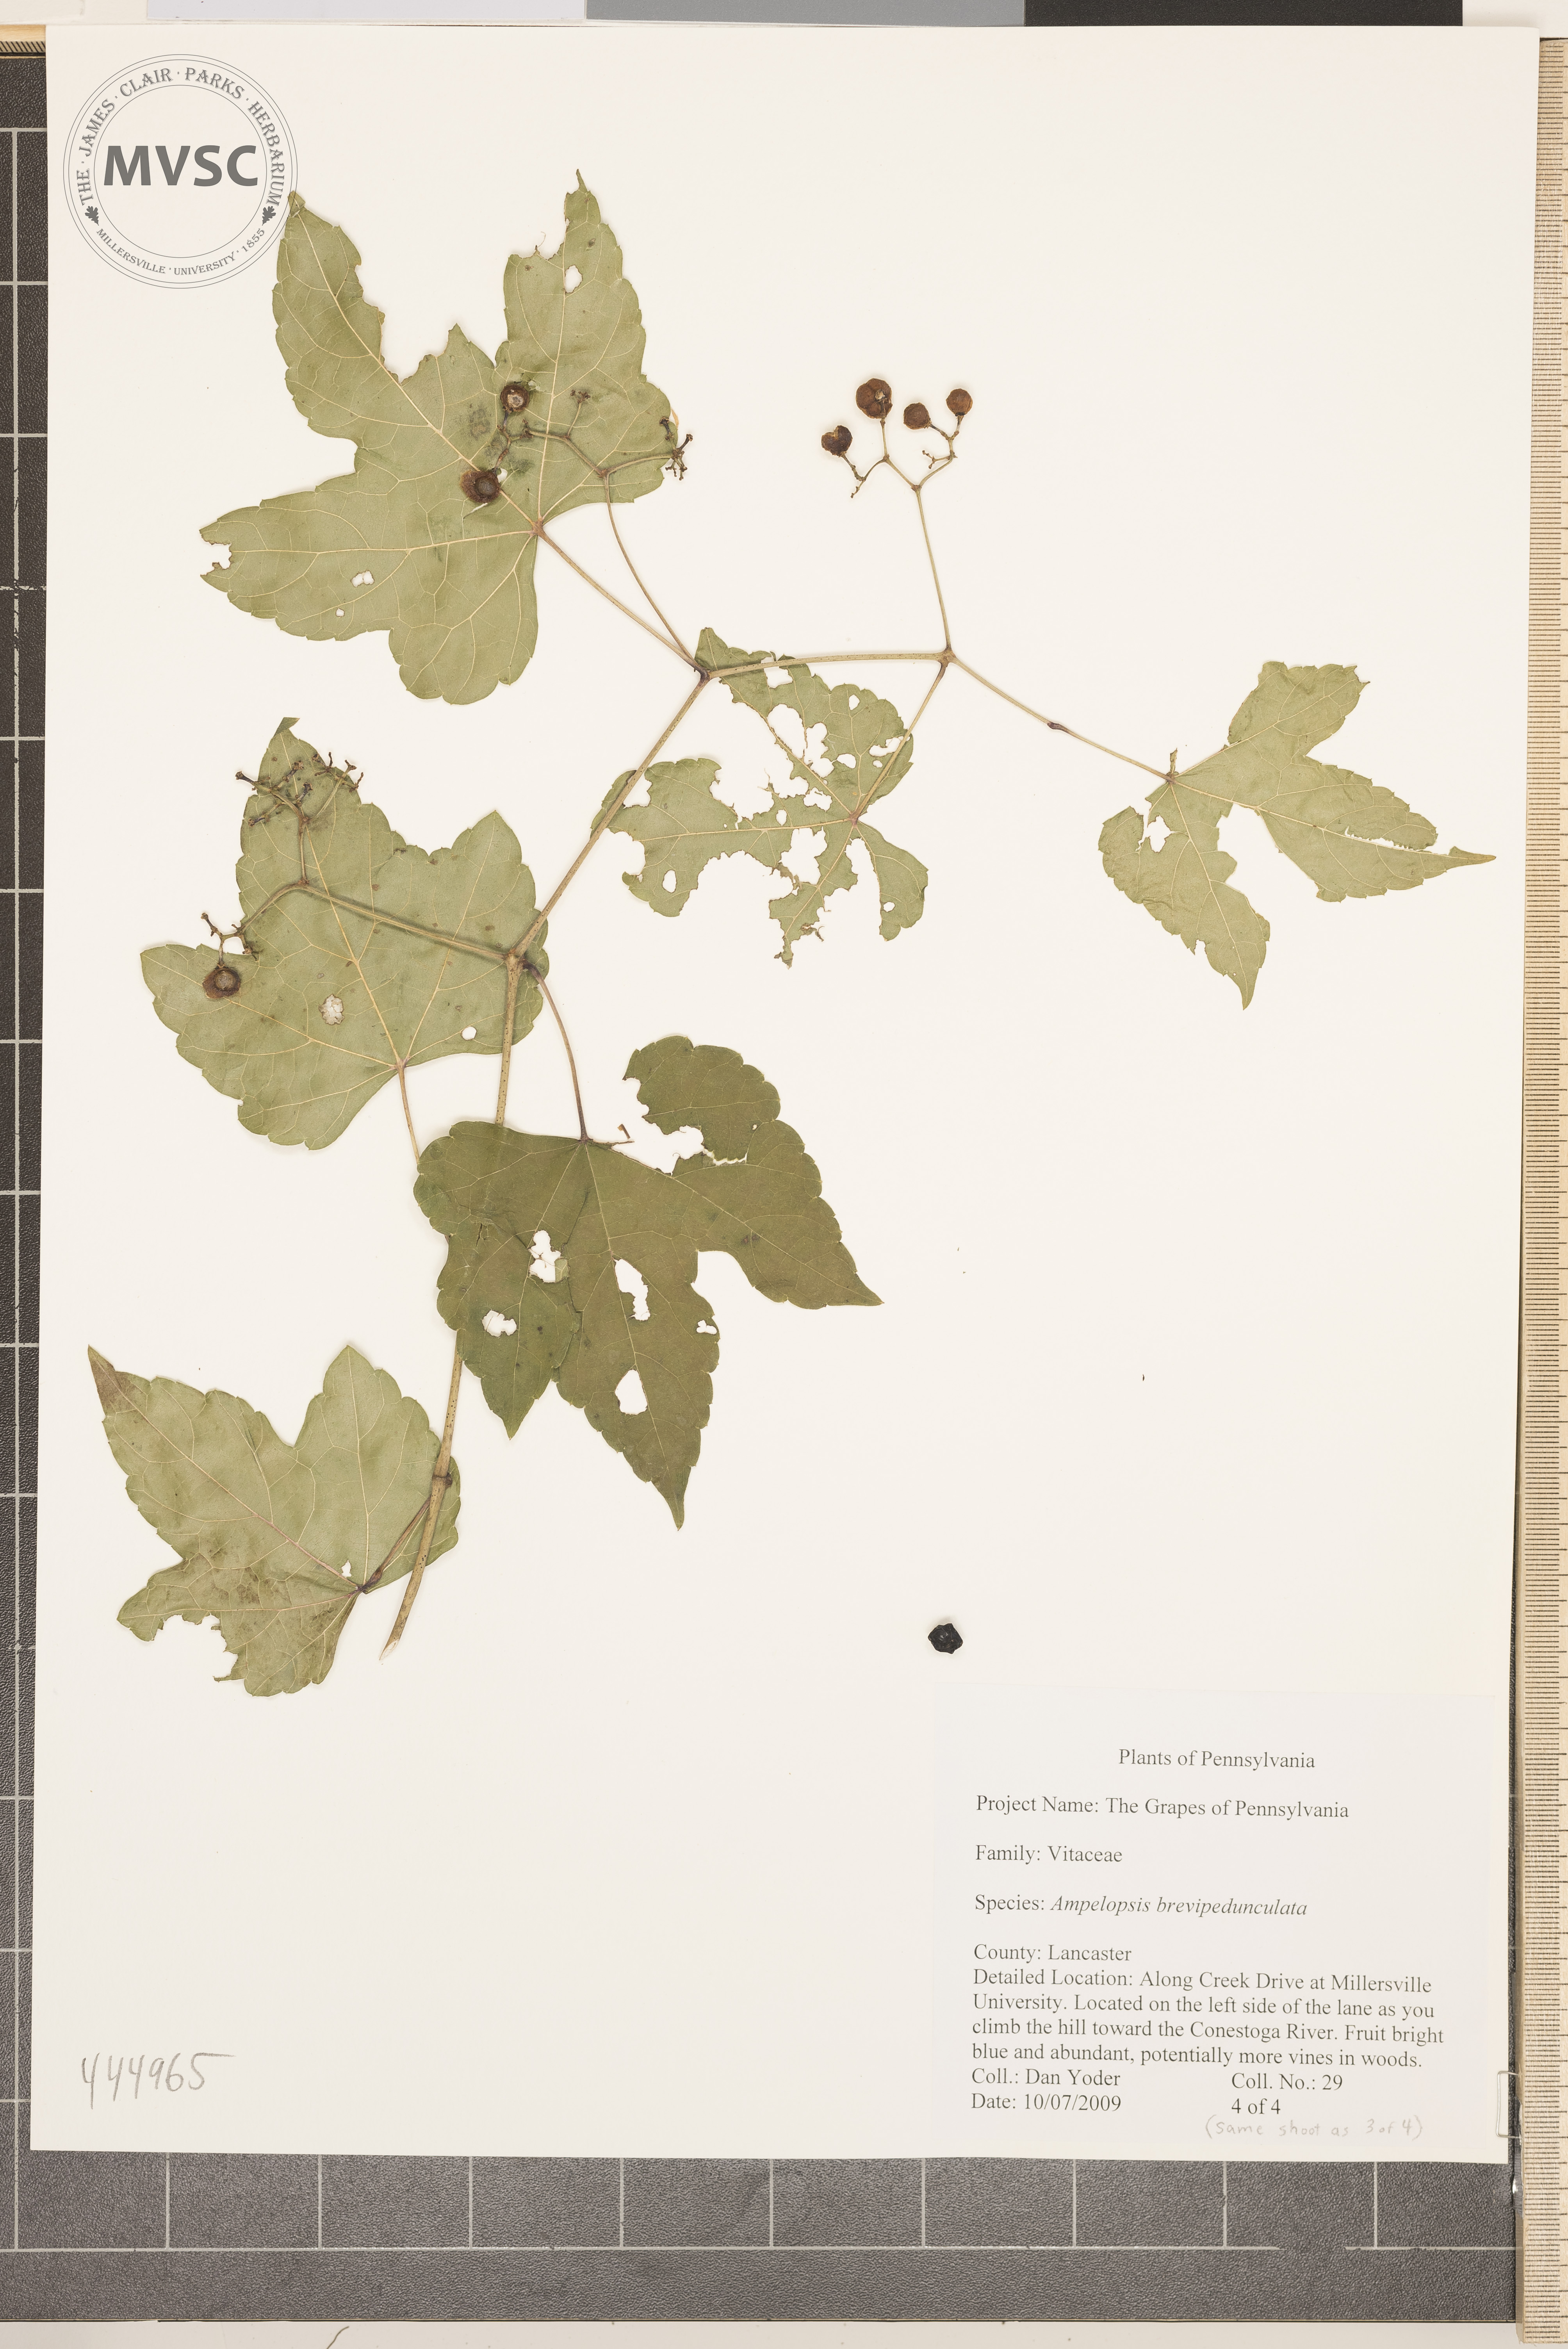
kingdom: Plantae
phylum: Tracheophyta
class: Magnoliopsida
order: Vitales
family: Vitaceae
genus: Ampelopsis
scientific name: Ampelopsis brevipedunculata
